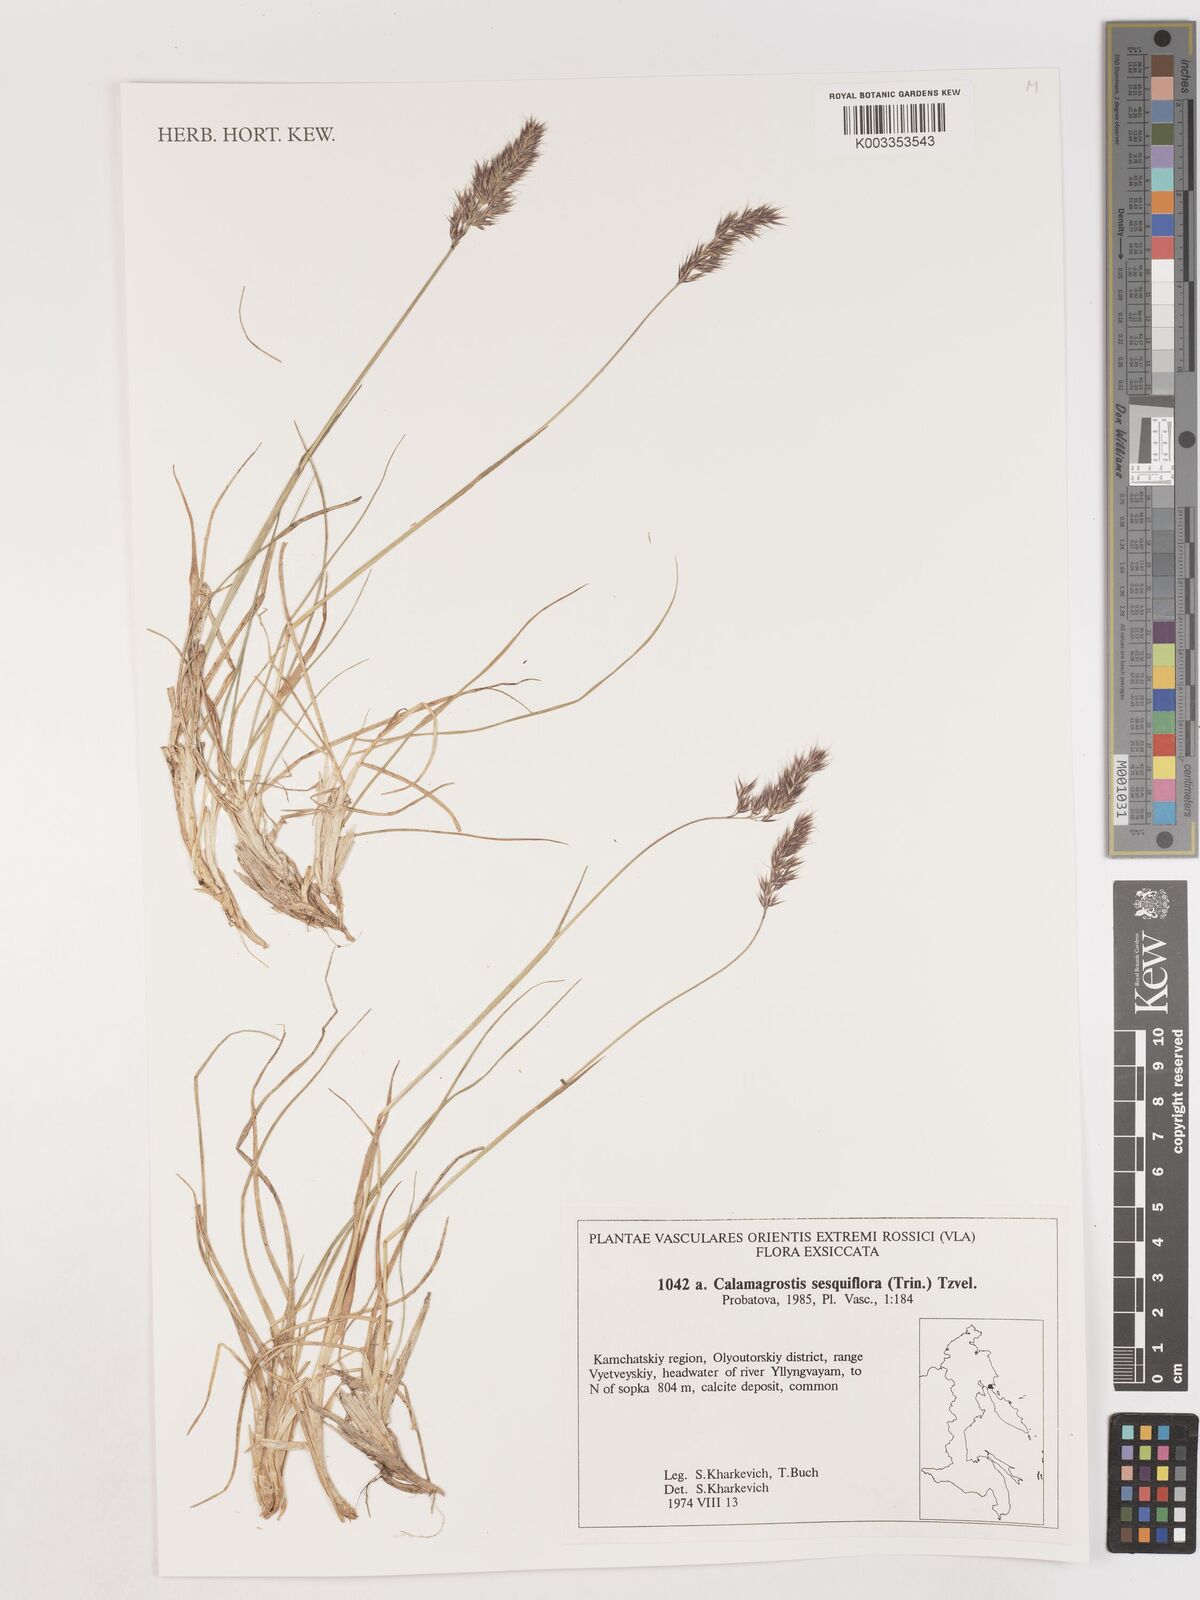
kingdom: Plantae
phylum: Tracheophyta
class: Liliopsida
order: Poales
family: Poaceae
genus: Podagrostis
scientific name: Podagrostis sesquiflora
